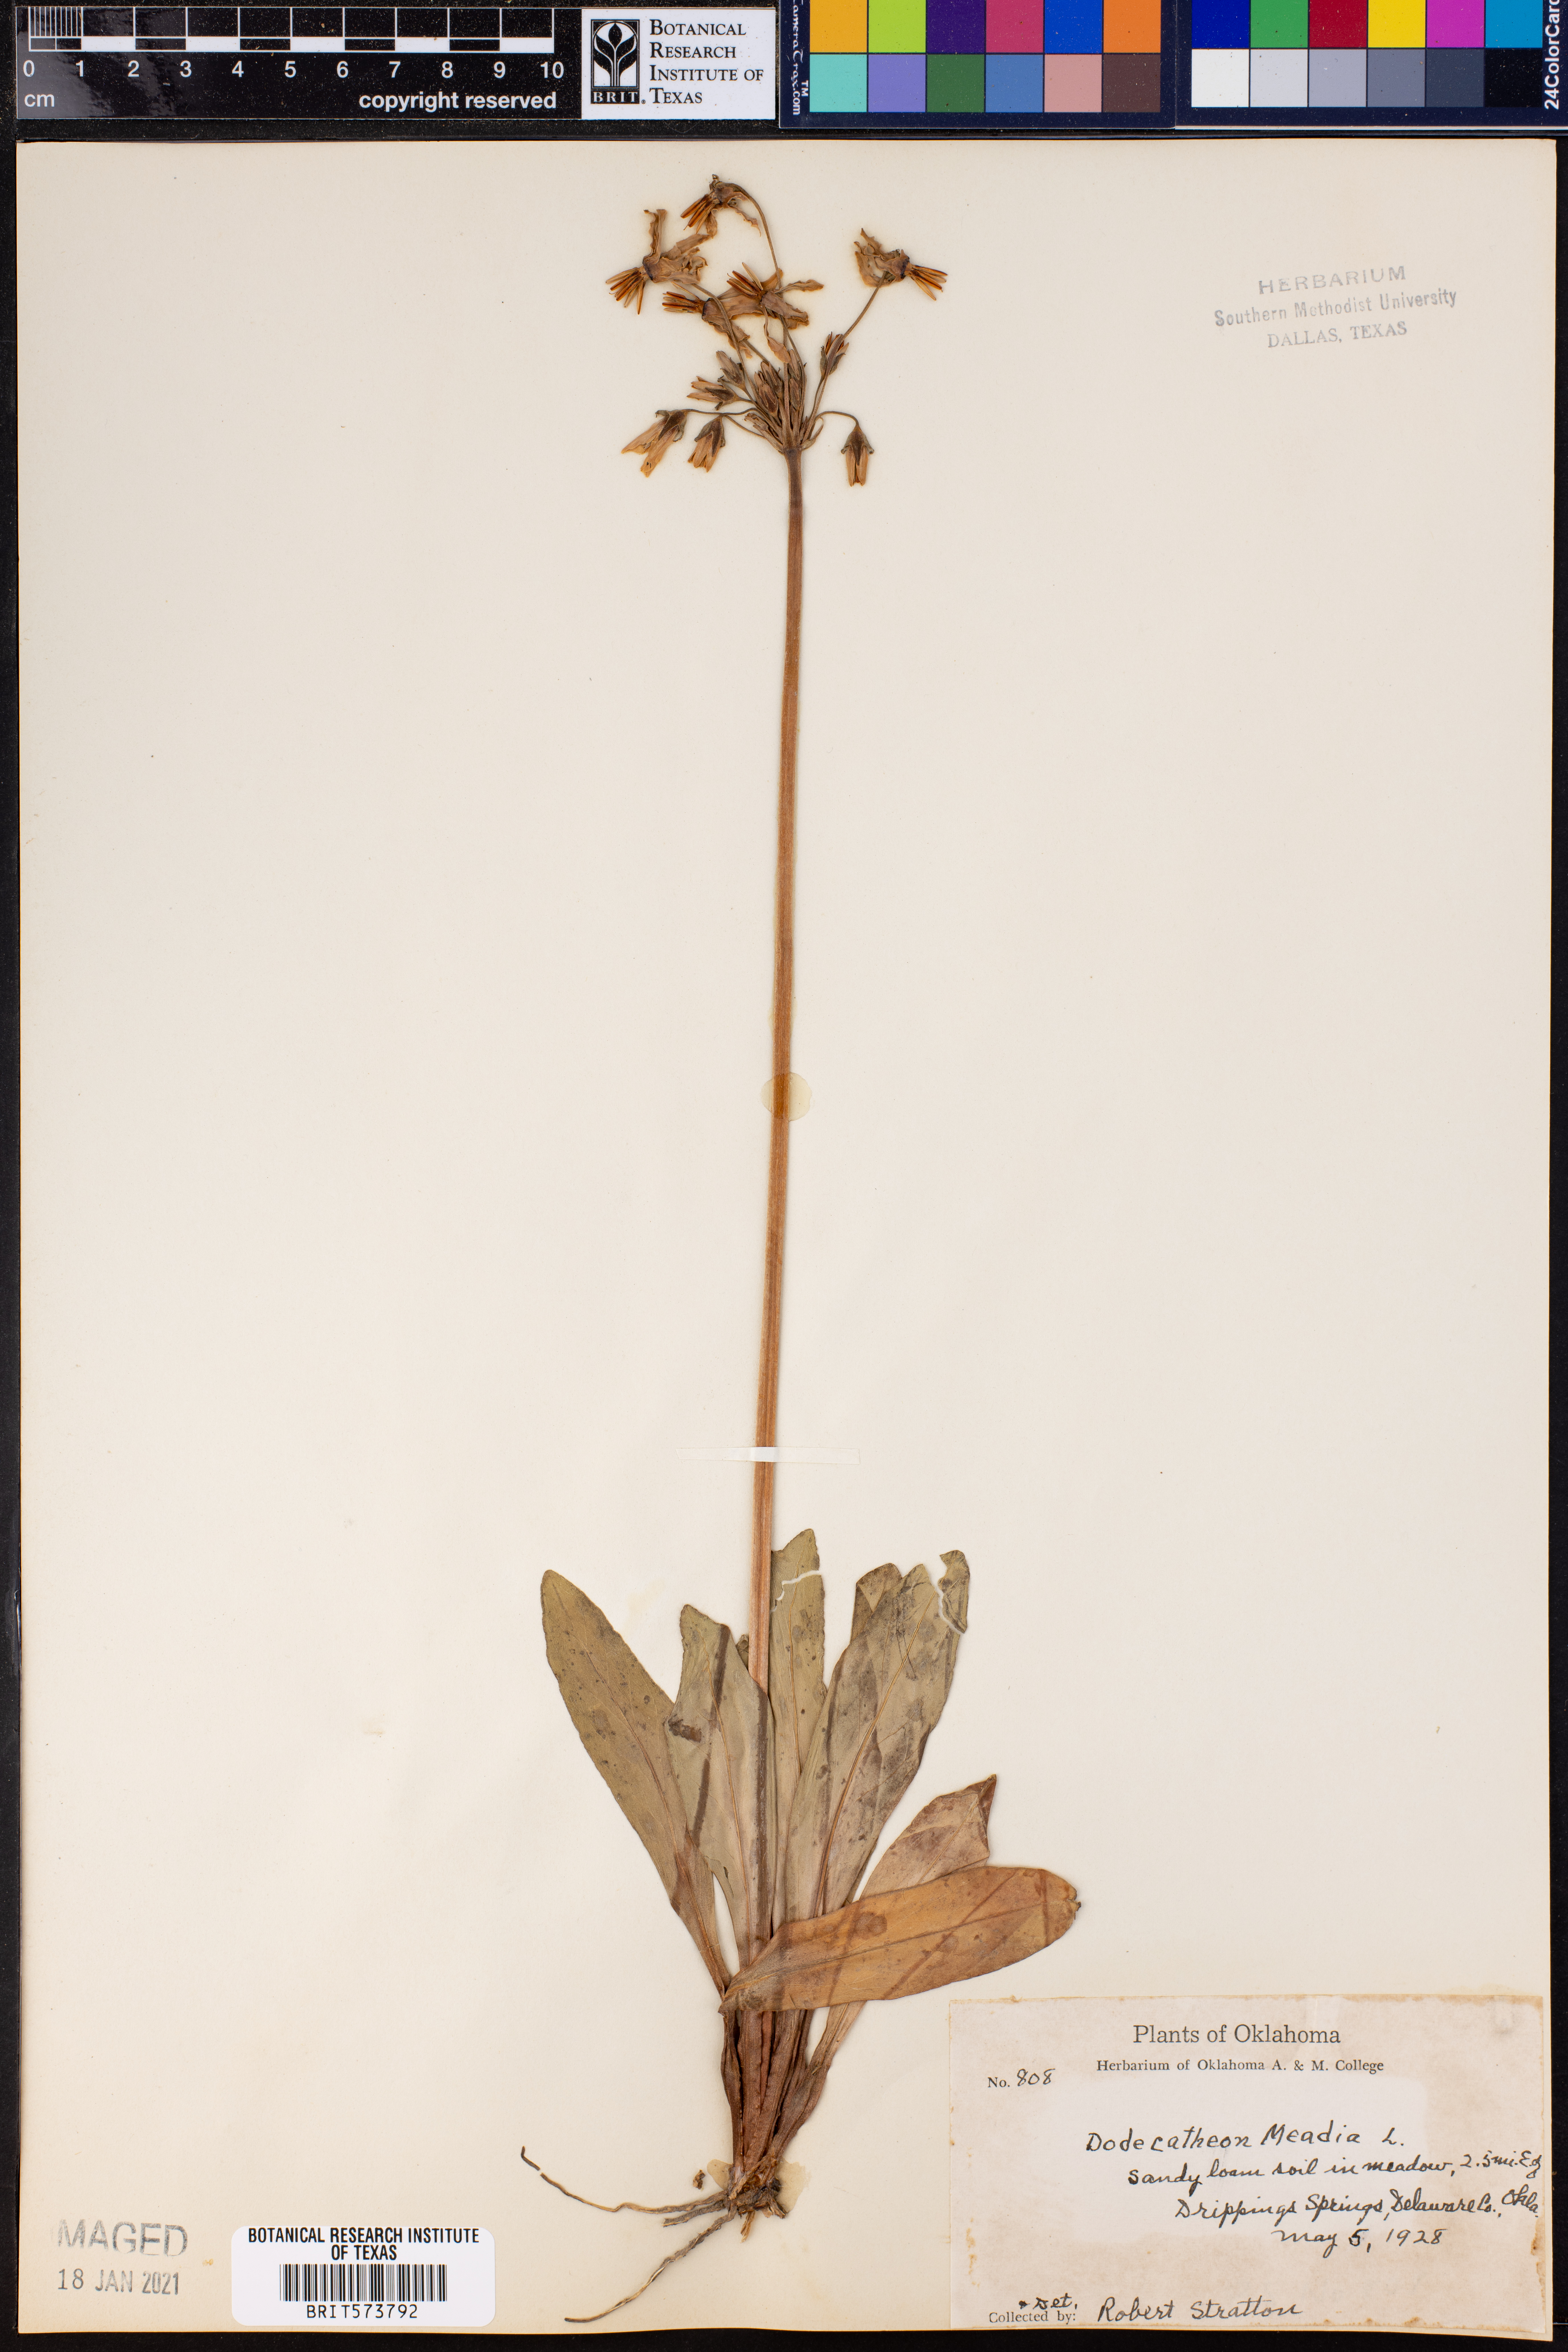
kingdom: Plantae
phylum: Tracheophyta
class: Magnoliopsida
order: Ericales
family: Primulaceae
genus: Dodecatheon
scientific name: Dodecatheon meadia
